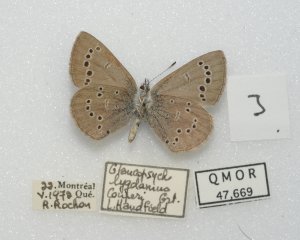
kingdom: Animalia
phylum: Arthropoda
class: Insecta
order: Lepidoptera
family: Lycaenidae
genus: Glaucopsyche
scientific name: Glaucopsyche lygdamus
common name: Silvery Blue
